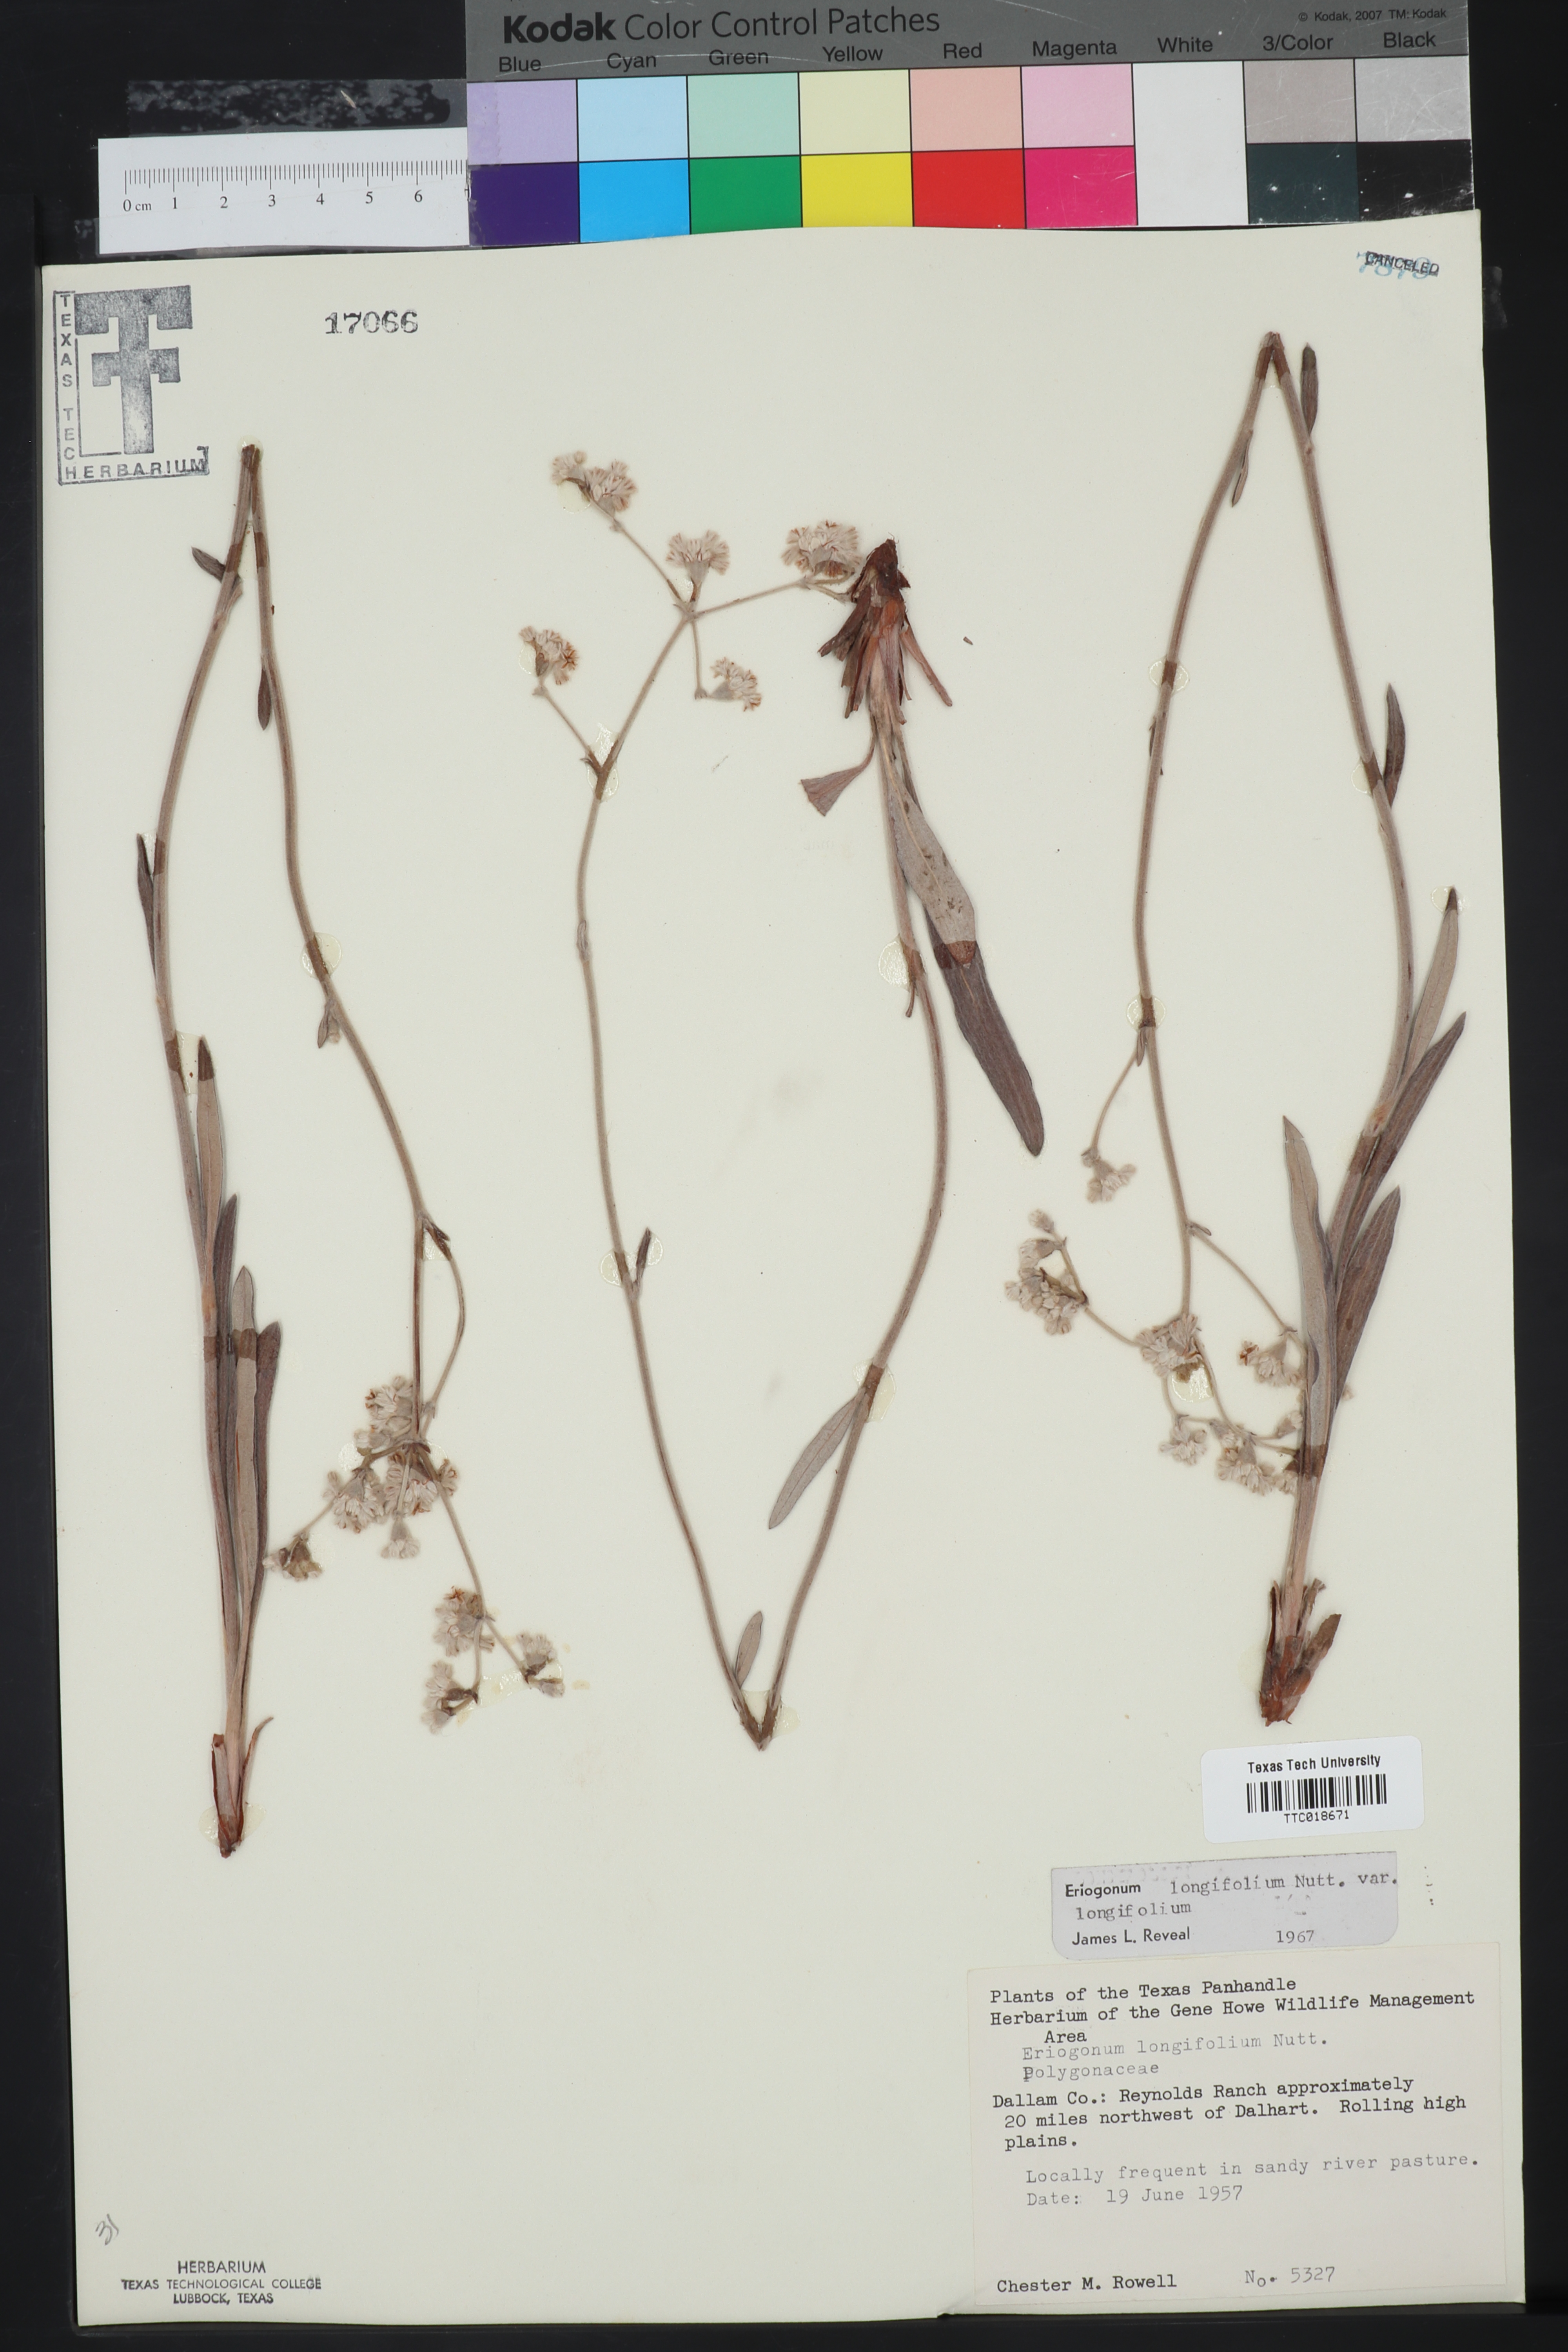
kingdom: Plantae
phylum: Tracheophyta
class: Magnoliopsida
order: Caryophyllales
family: Polygonaceae
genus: Eriogonum
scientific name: Eriogonum longifolium
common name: Longleaf wild buckwheat
